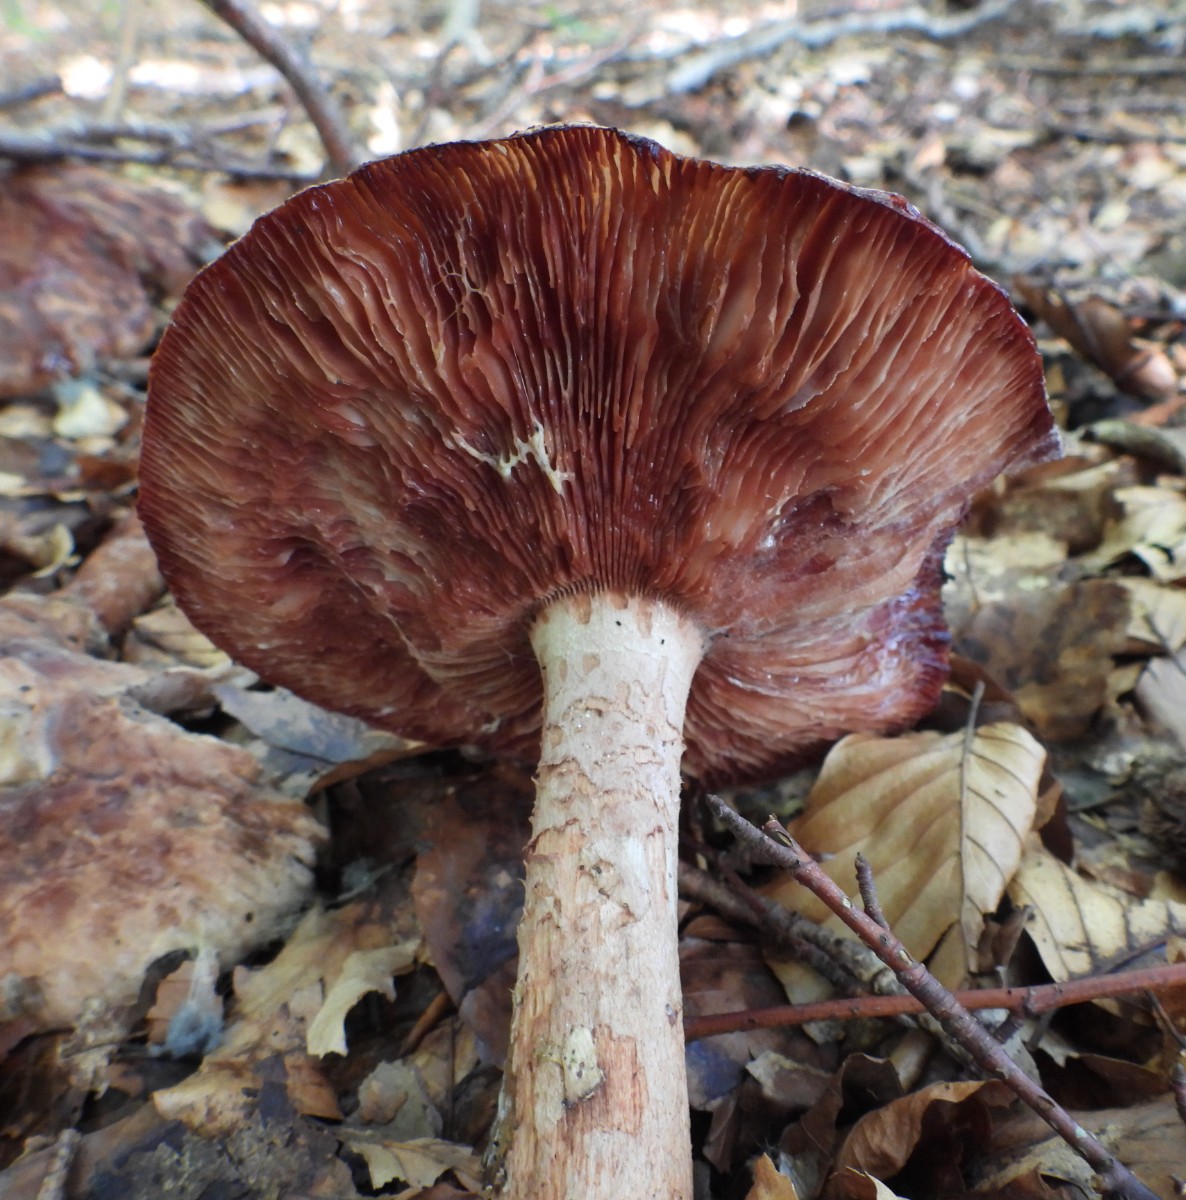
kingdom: Fungi
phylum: Basidiomycota
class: Agaricomycetes
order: Agaricales
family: Amanitaceae
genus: Amanita
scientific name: Amanita rubescens
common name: rødmende fluesvamp
